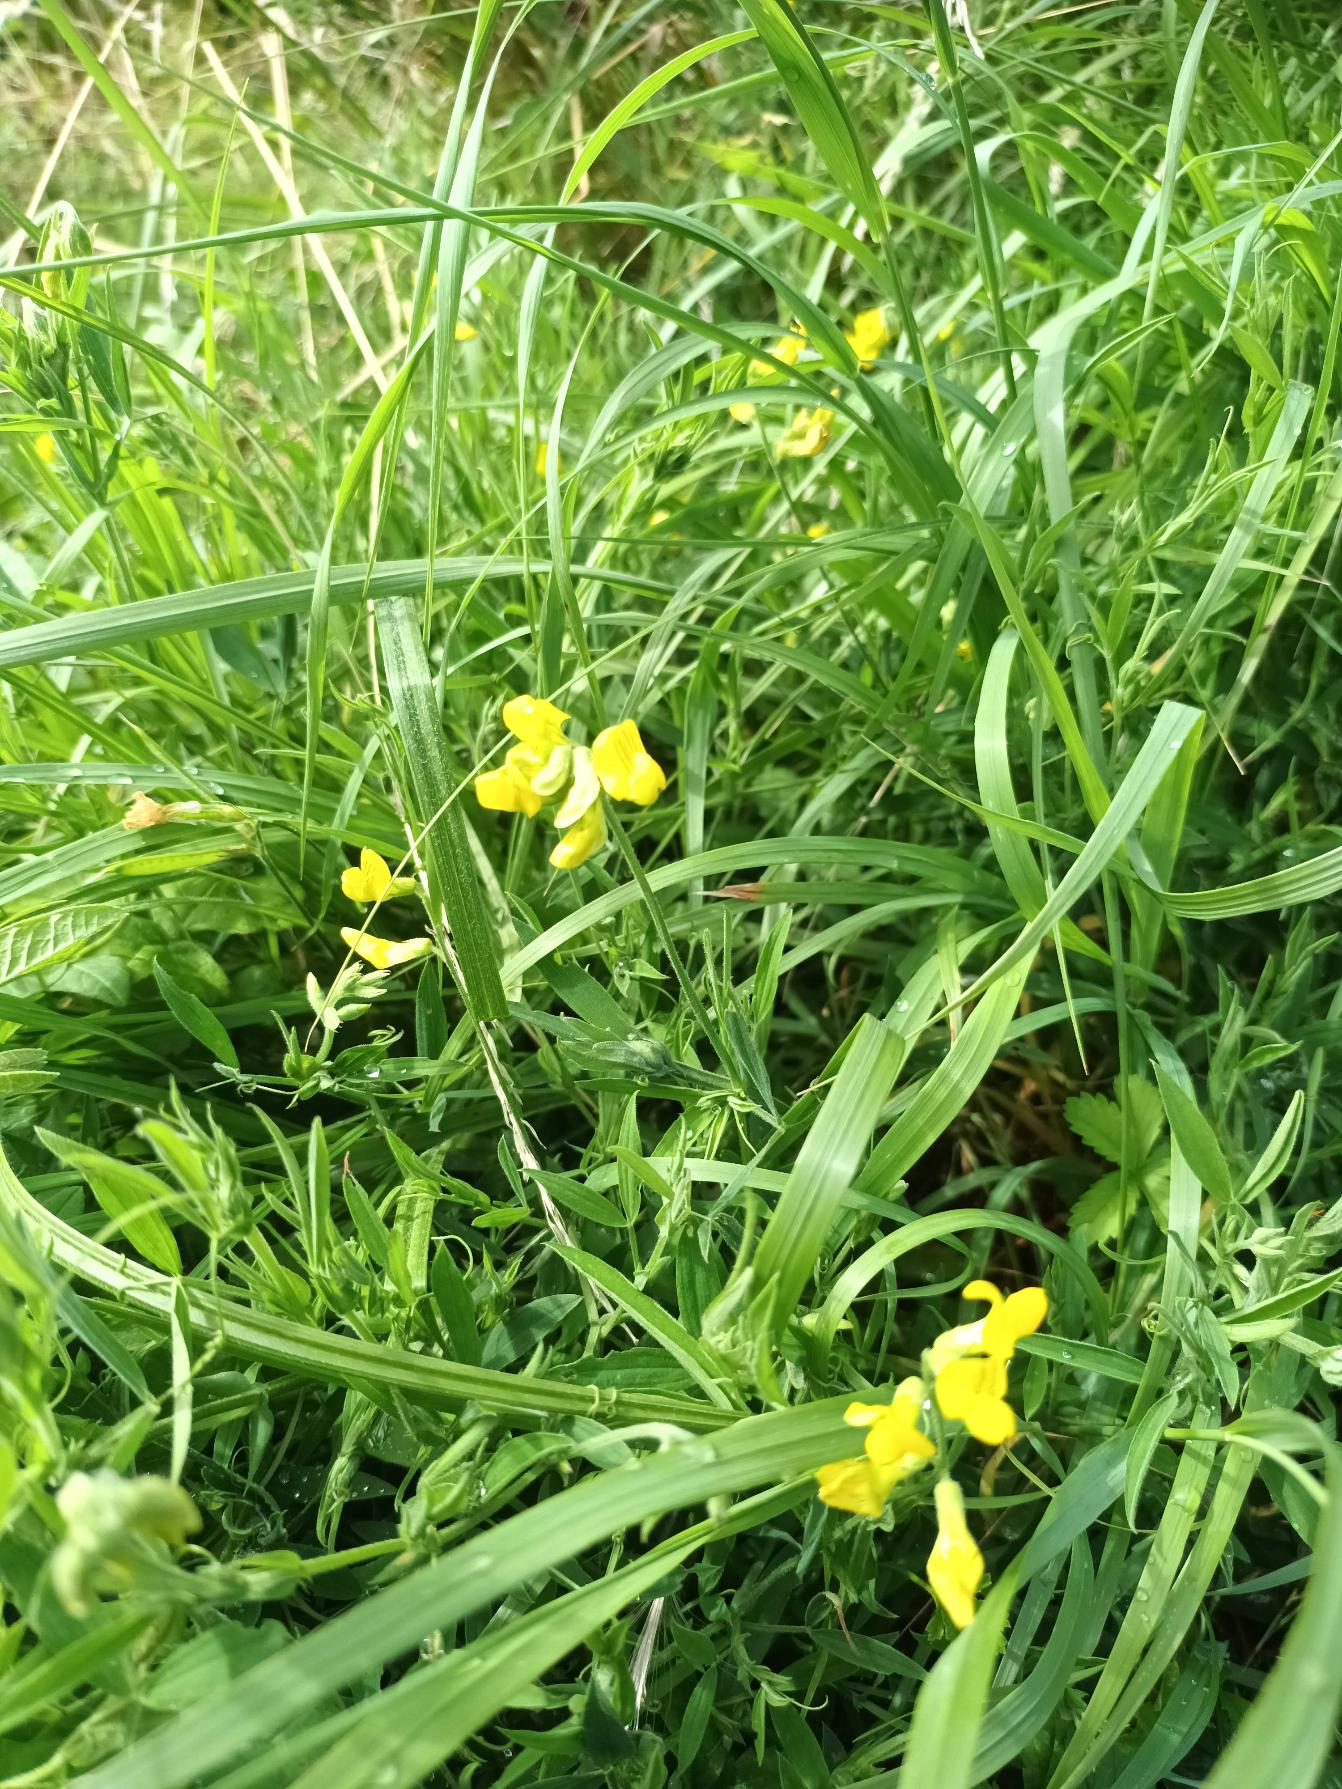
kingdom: Plantae
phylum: Tracheophyta
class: Magnoliopsida
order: Fabales
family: Fabaceae
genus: Lathyrus
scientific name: Lathyrus pratensis
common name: Gul fladbælg
